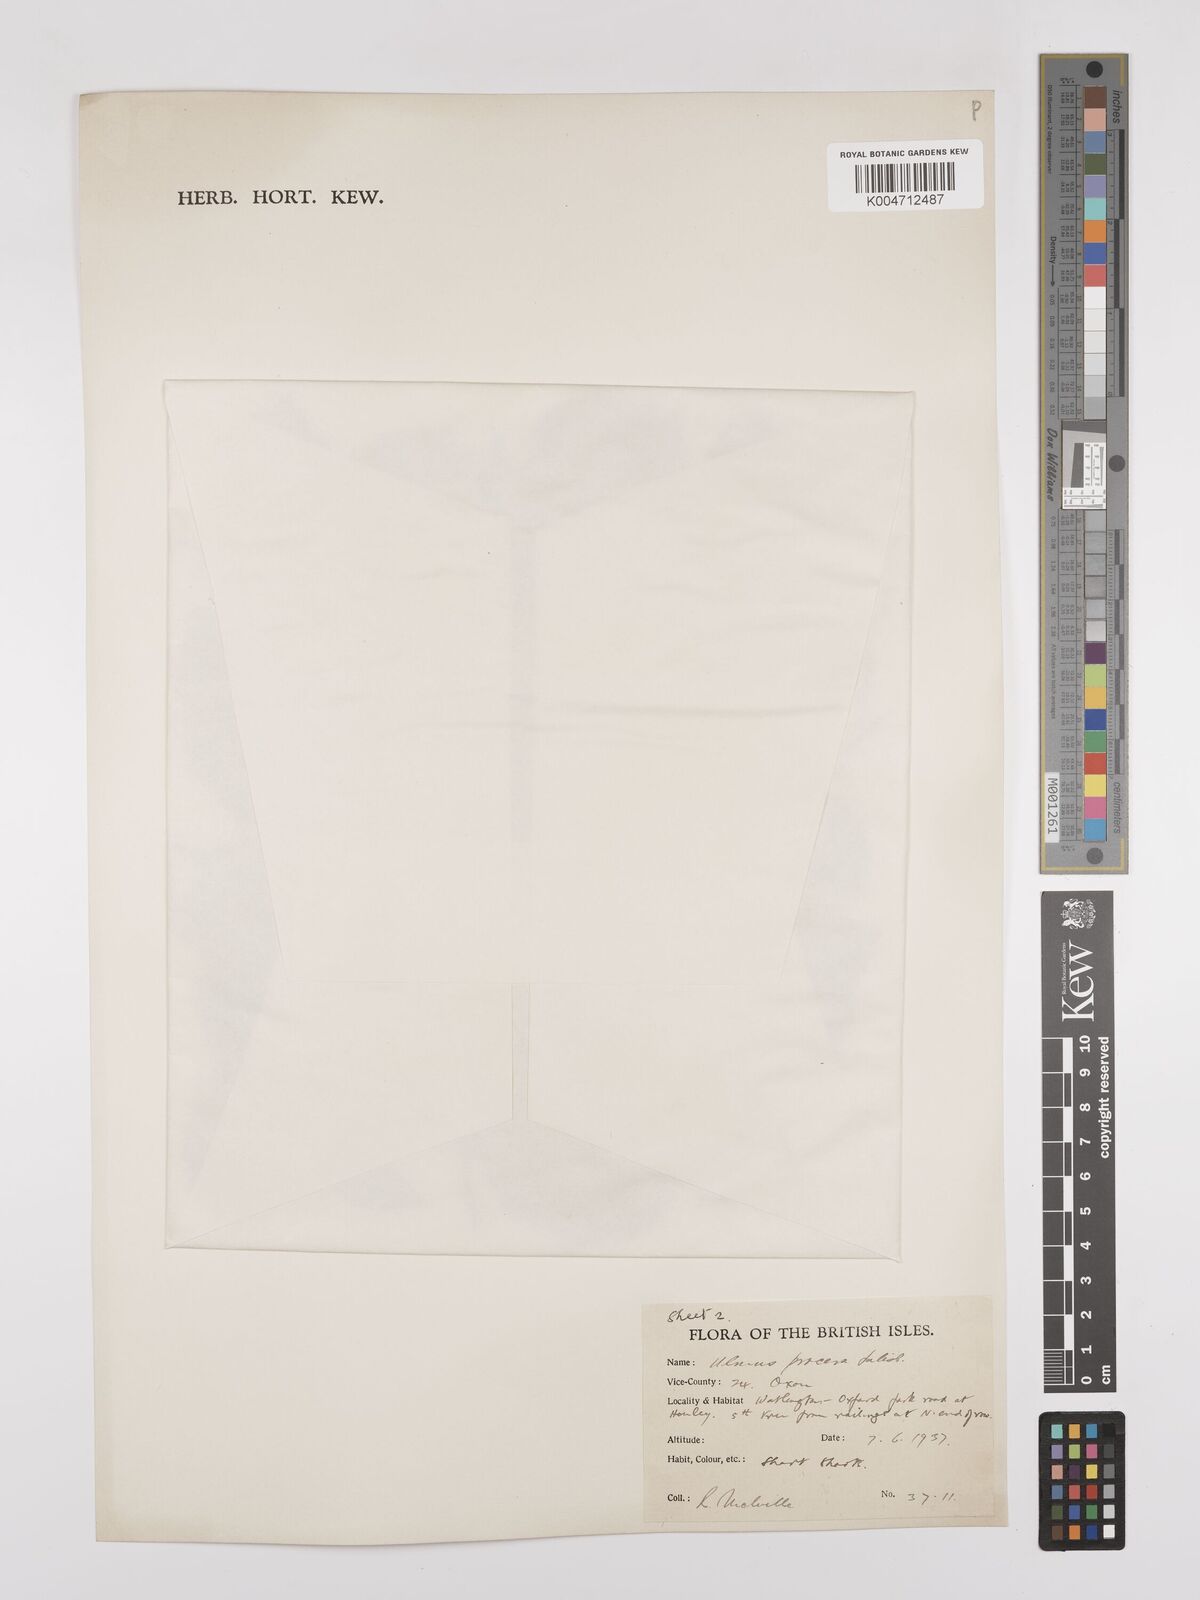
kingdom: Plantae
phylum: Tracheophyta
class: Magnoliopsida
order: Rosales
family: Ulmaceae
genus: Ulmus
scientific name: Ulmus minor
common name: Small-leaved elm
